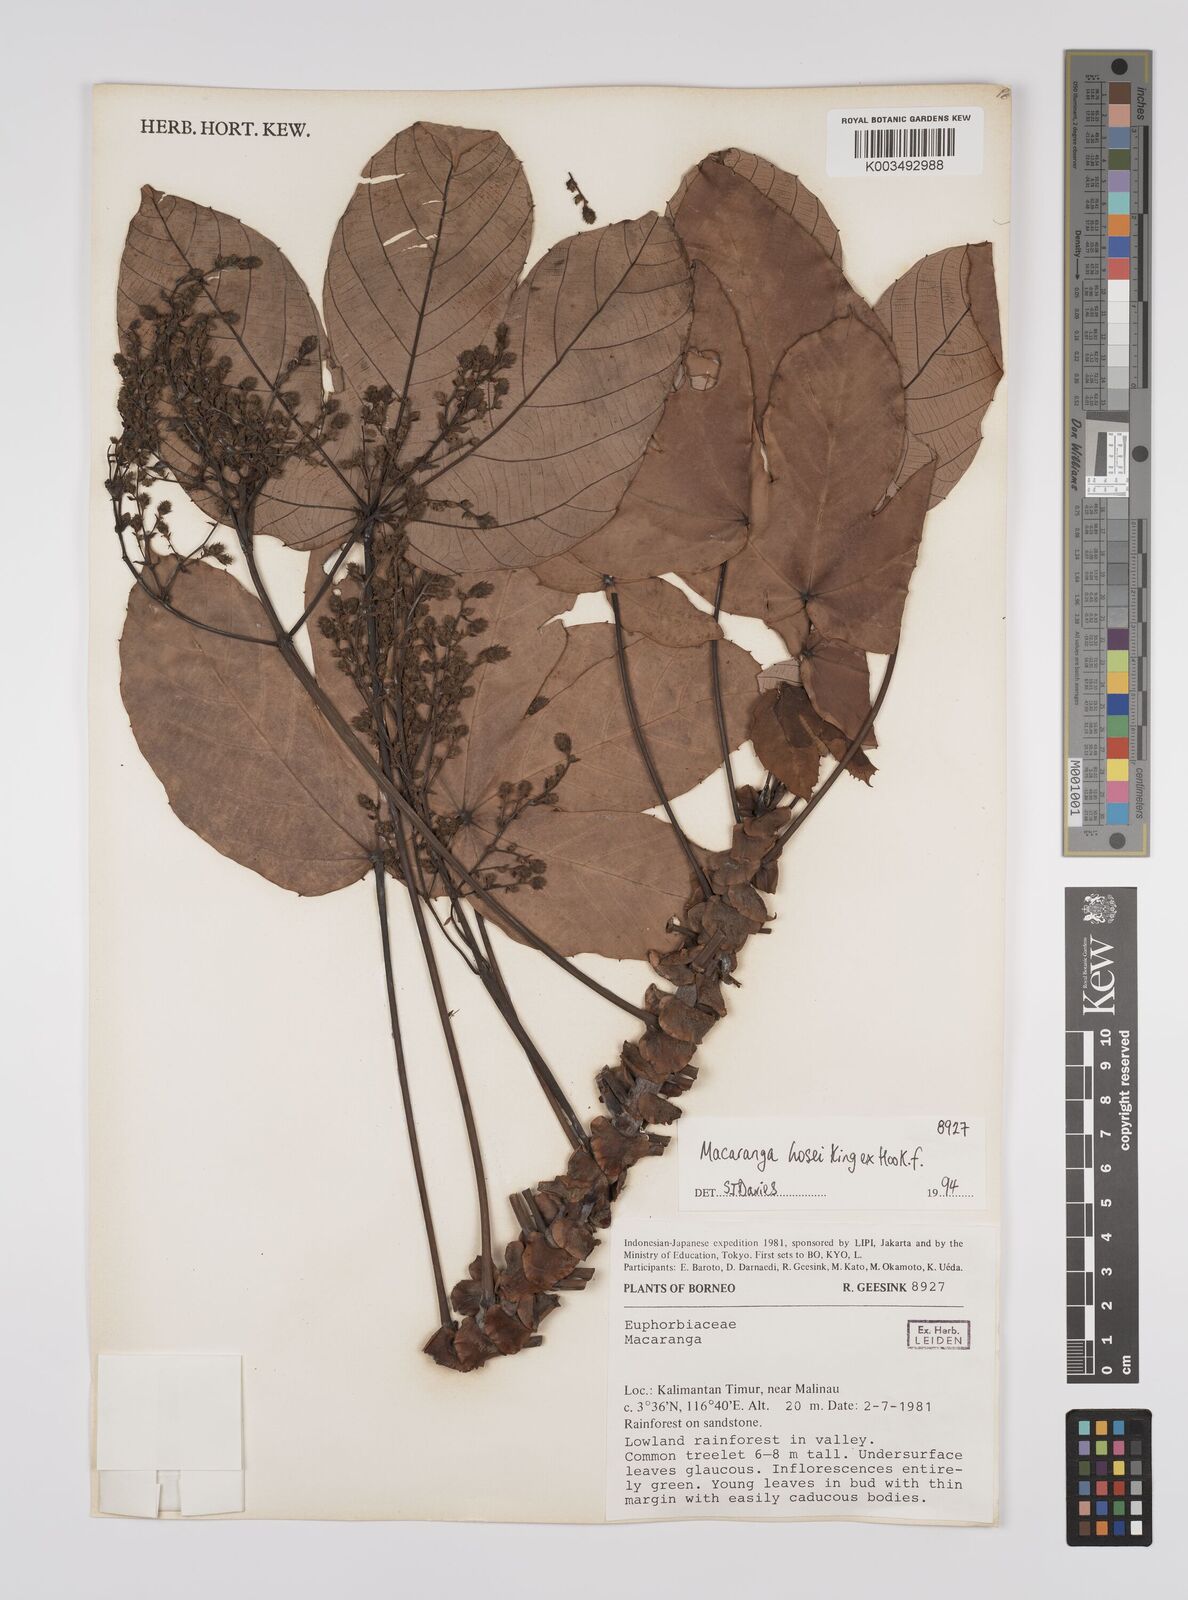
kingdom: Plantae
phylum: Tracheophyta
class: Magnoliopsida
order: Malpighiales
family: Euphorbiaceae
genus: Macaranga
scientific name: Macaranga hosei
